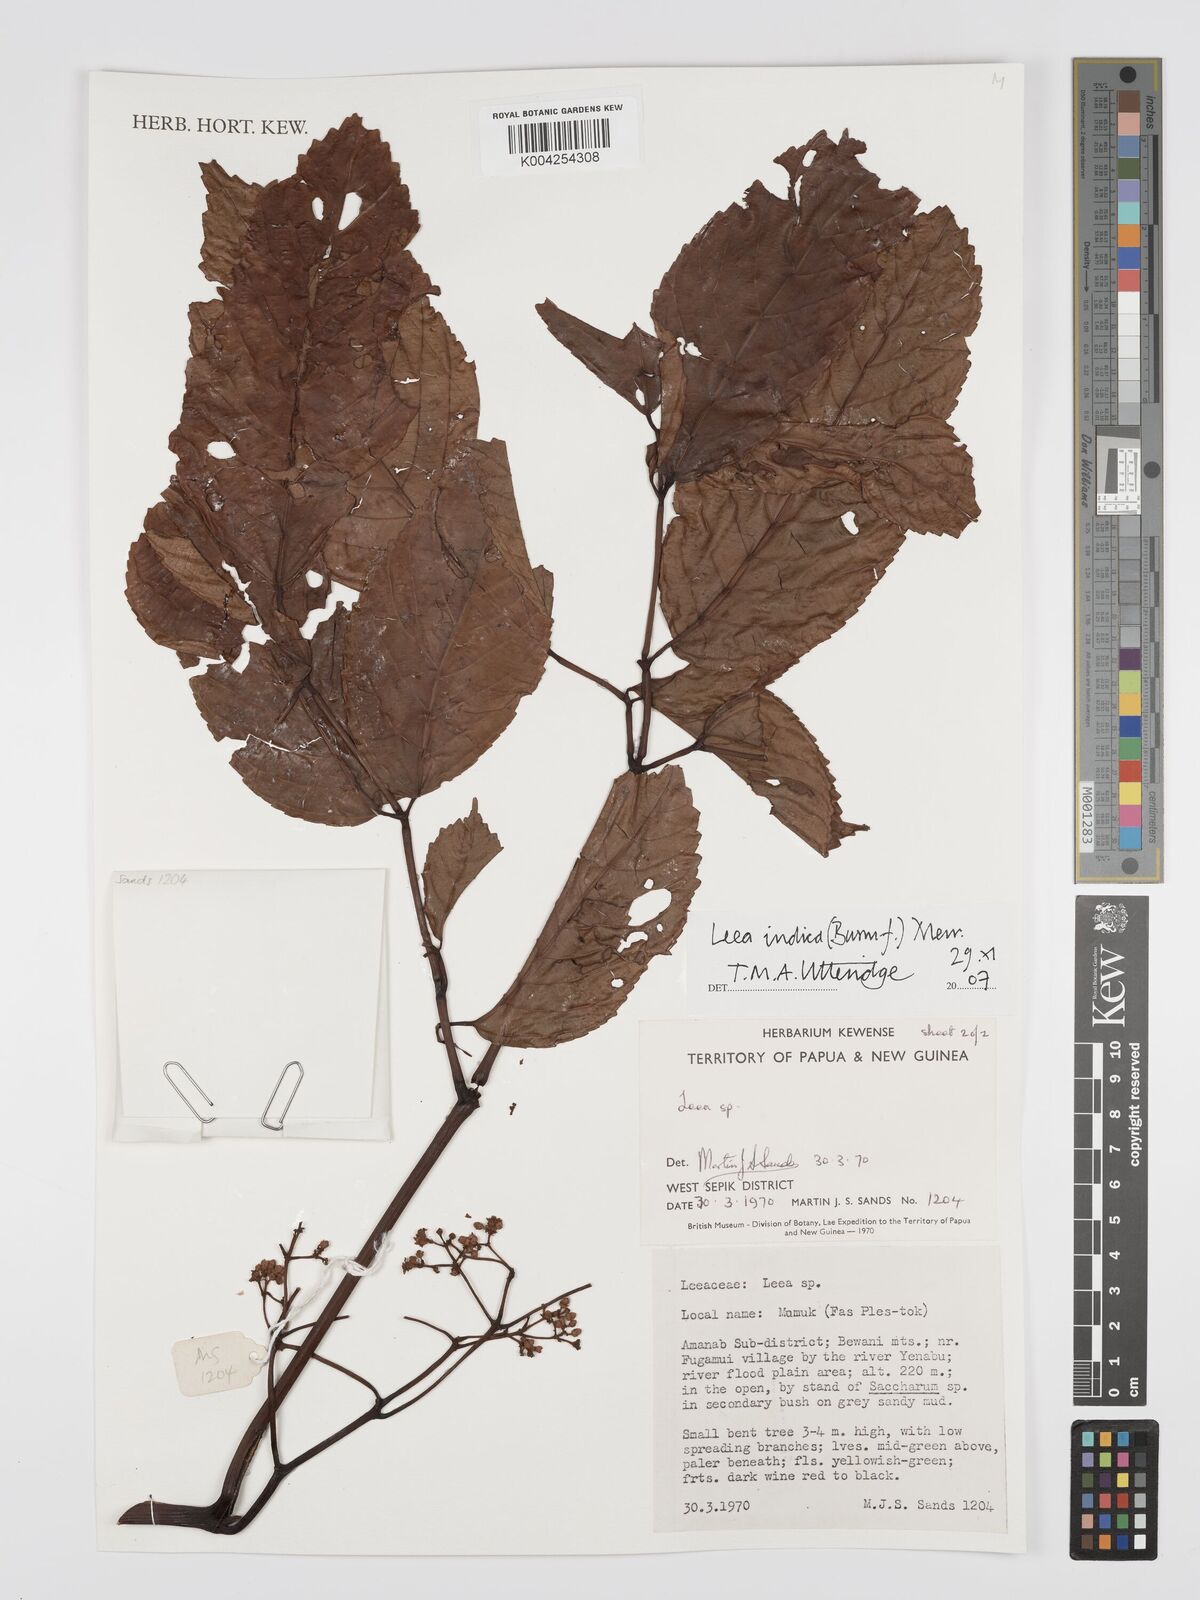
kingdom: Plantae
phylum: Tracheophyta
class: Magnoliopsida
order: Vitales
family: Vitaceae
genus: Leea
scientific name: Leea indica
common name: Bandicoot-berry
